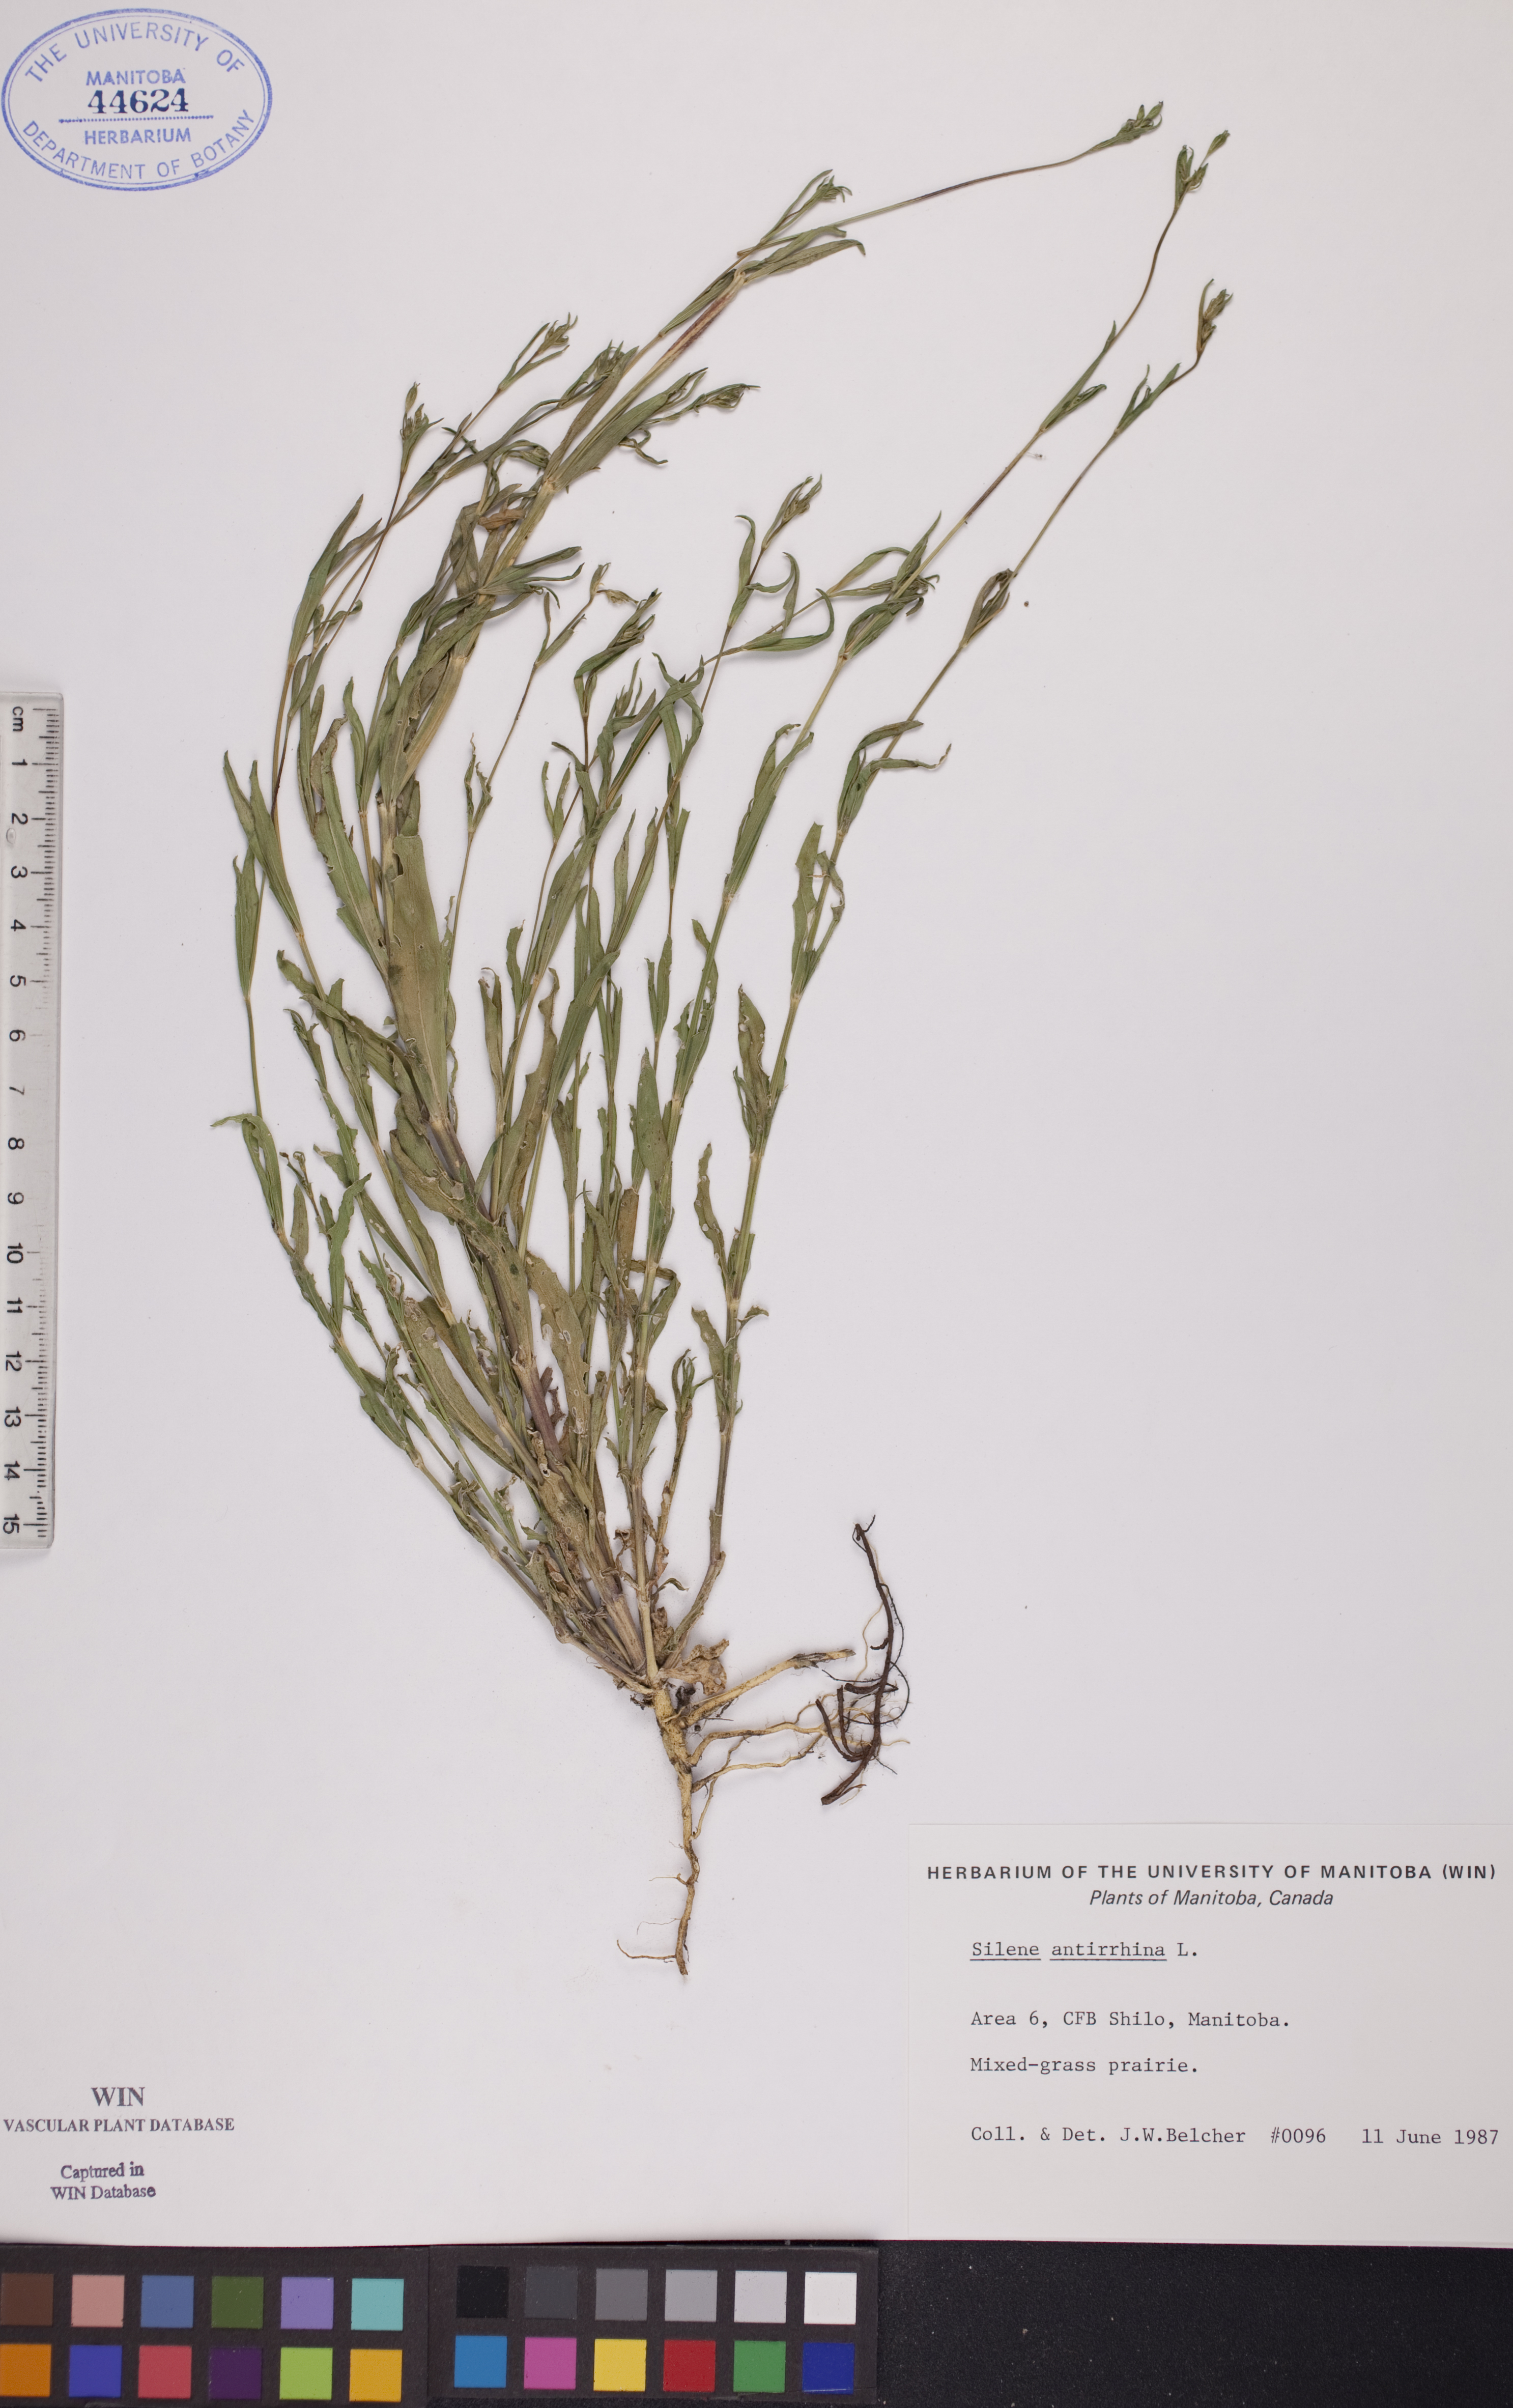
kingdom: Plantae
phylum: Tracheophyta
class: Magnoliopsida
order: Caryophyllales
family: Caryophyllaceae
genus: Silene
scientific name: Silene antirrhina
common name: Sleepy catchfly
